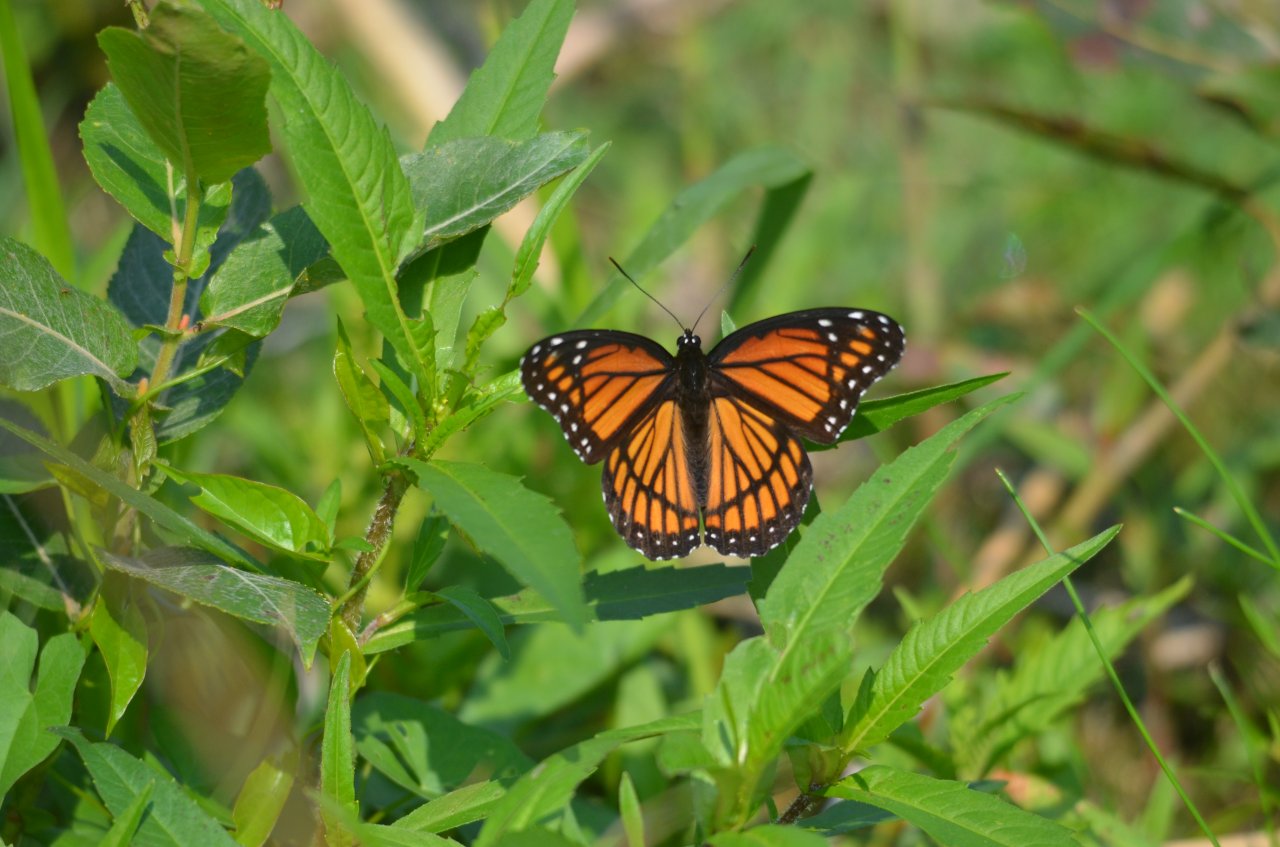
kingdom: Animalia
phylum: Arthropoda
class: Insecta
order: Lepidoptera
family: Nymphalidae
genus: Limenitis
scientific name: Limenitis archippus
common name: Viceroy
